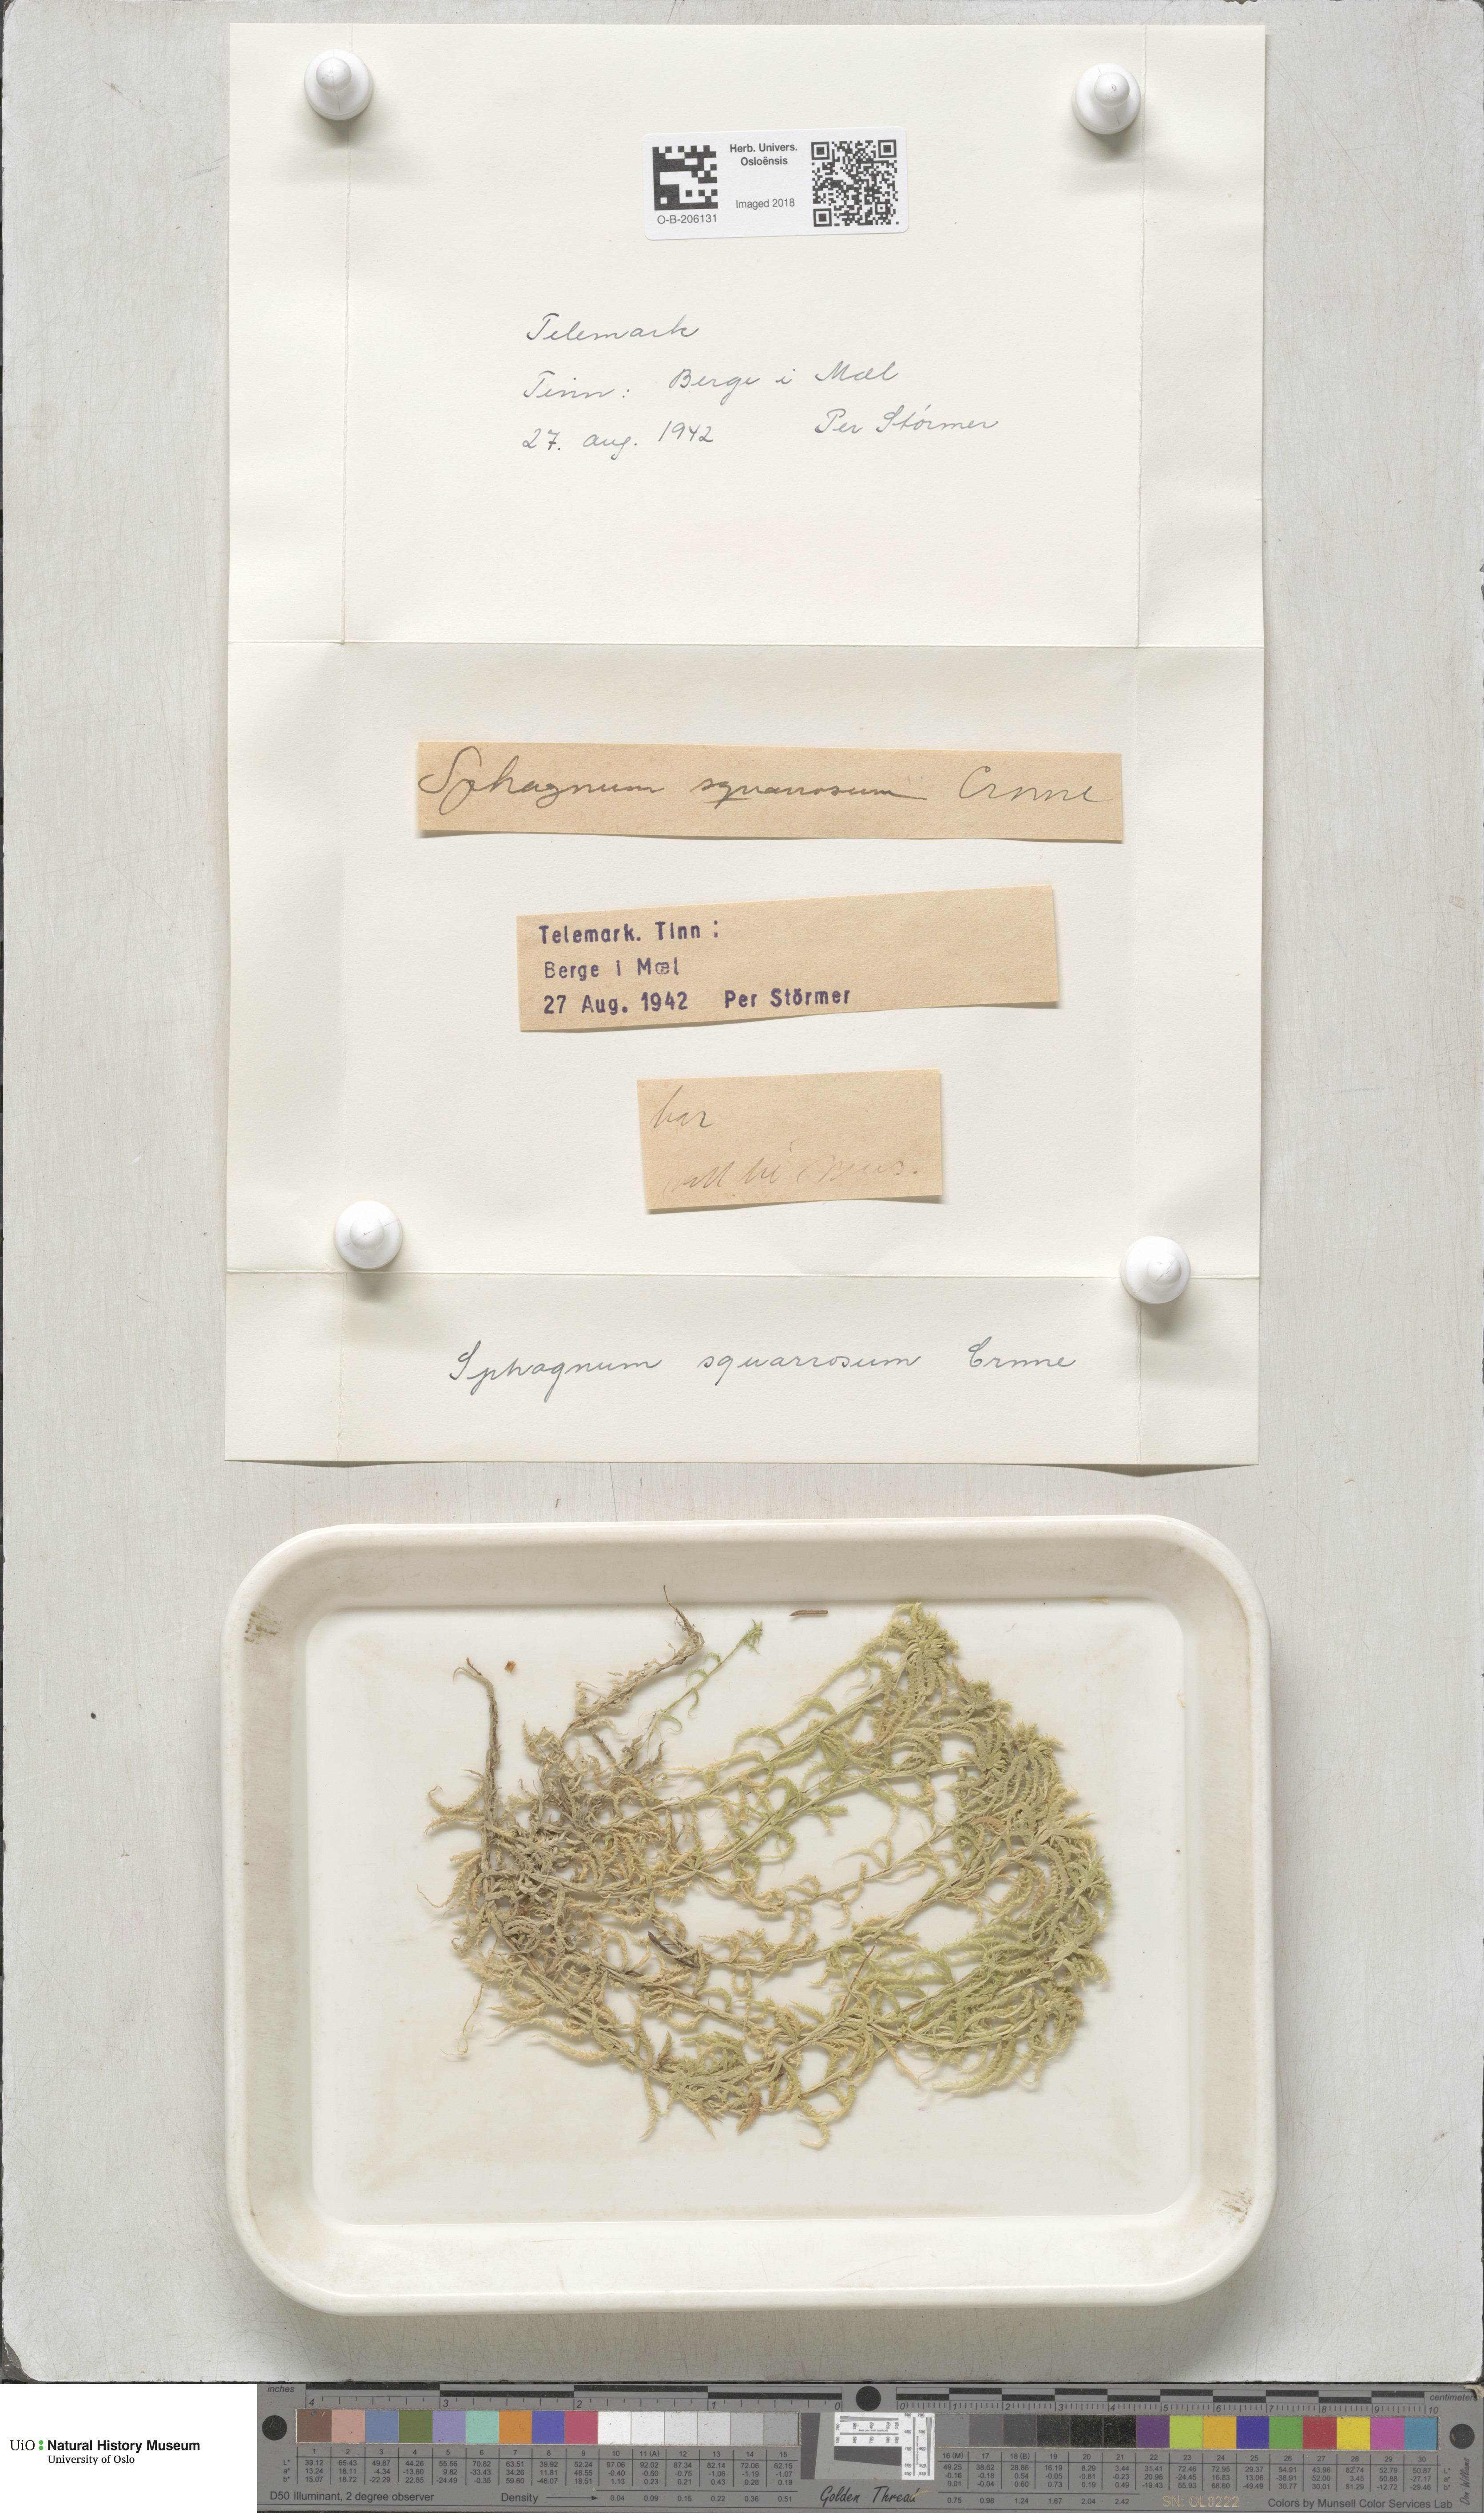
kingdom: Plantae
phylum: Bryophyta
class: Sphagnopsida
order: Sphagnales
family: Sphagnaceae
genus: Sphagnum
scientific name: Sphagnum squarrosum
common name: Shaggy peat moss
